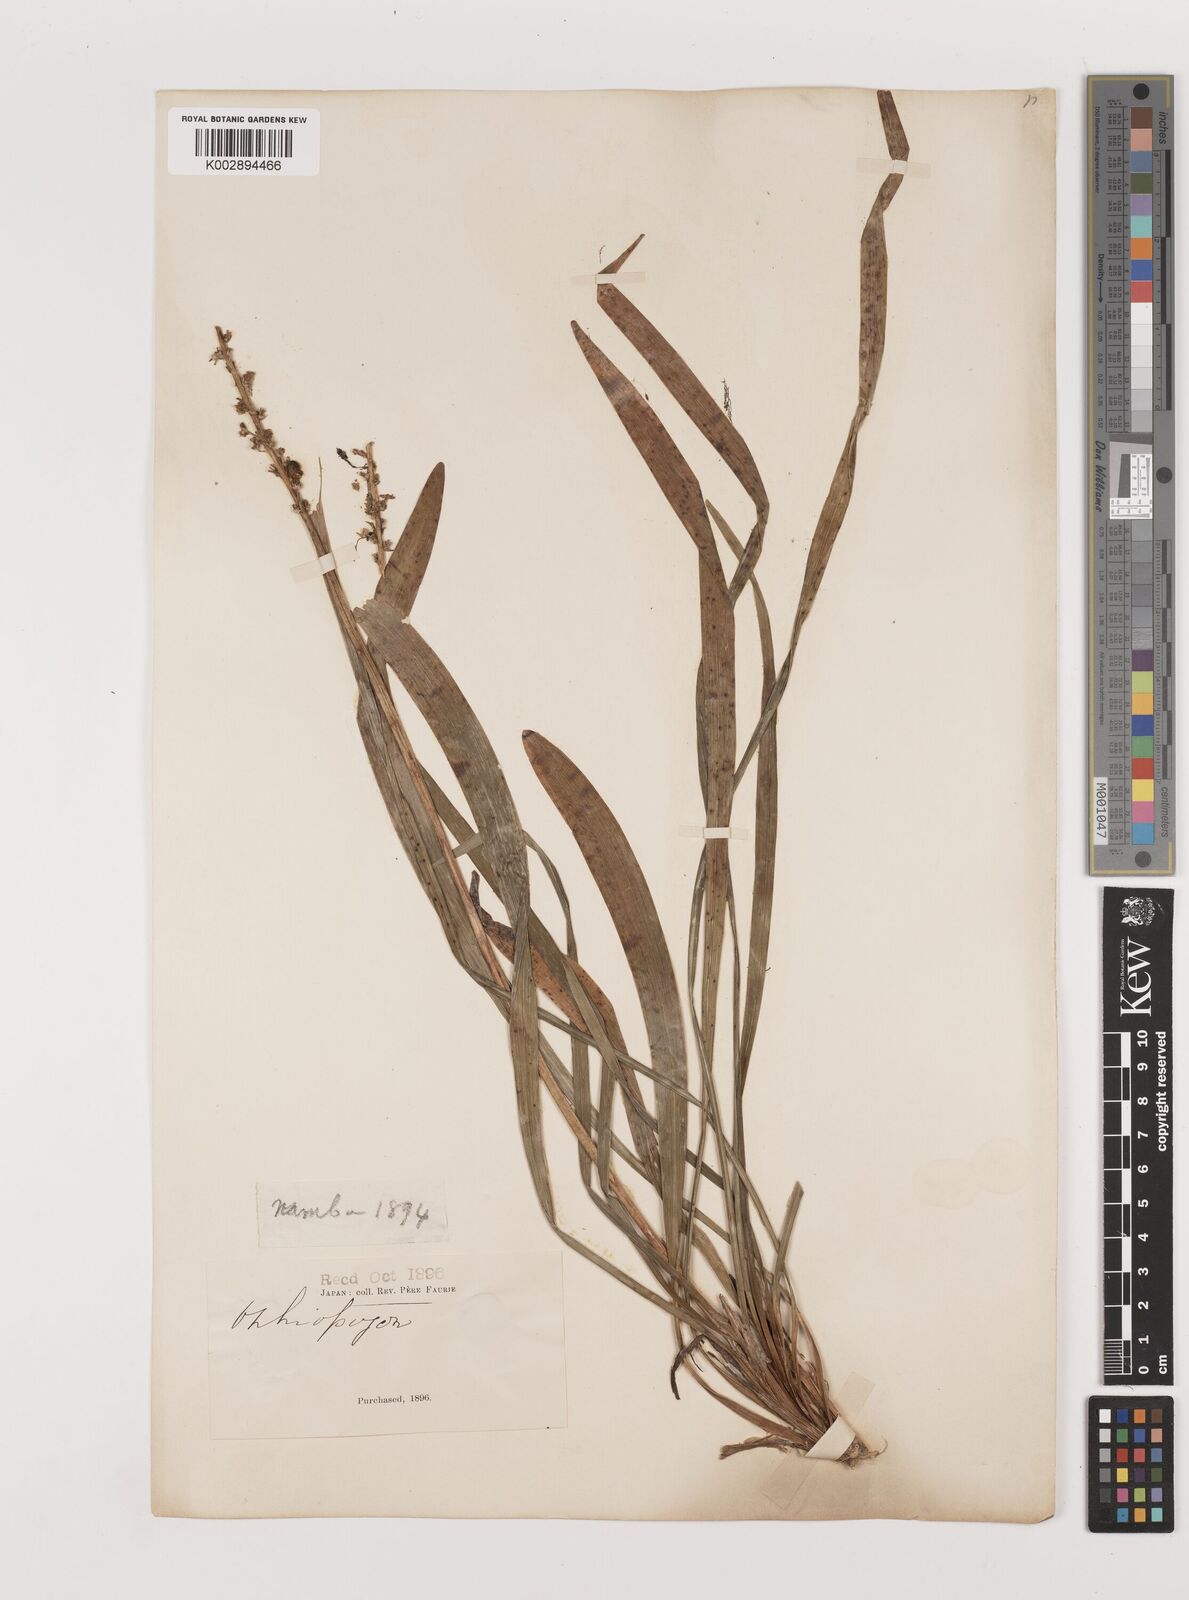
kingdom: Plantae
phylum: Tracheophyta
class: Liliopsida
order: Asparagales
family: Asparagaceae
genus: Liriope
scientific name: Liriope muscari
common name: Big blue lilyturf
